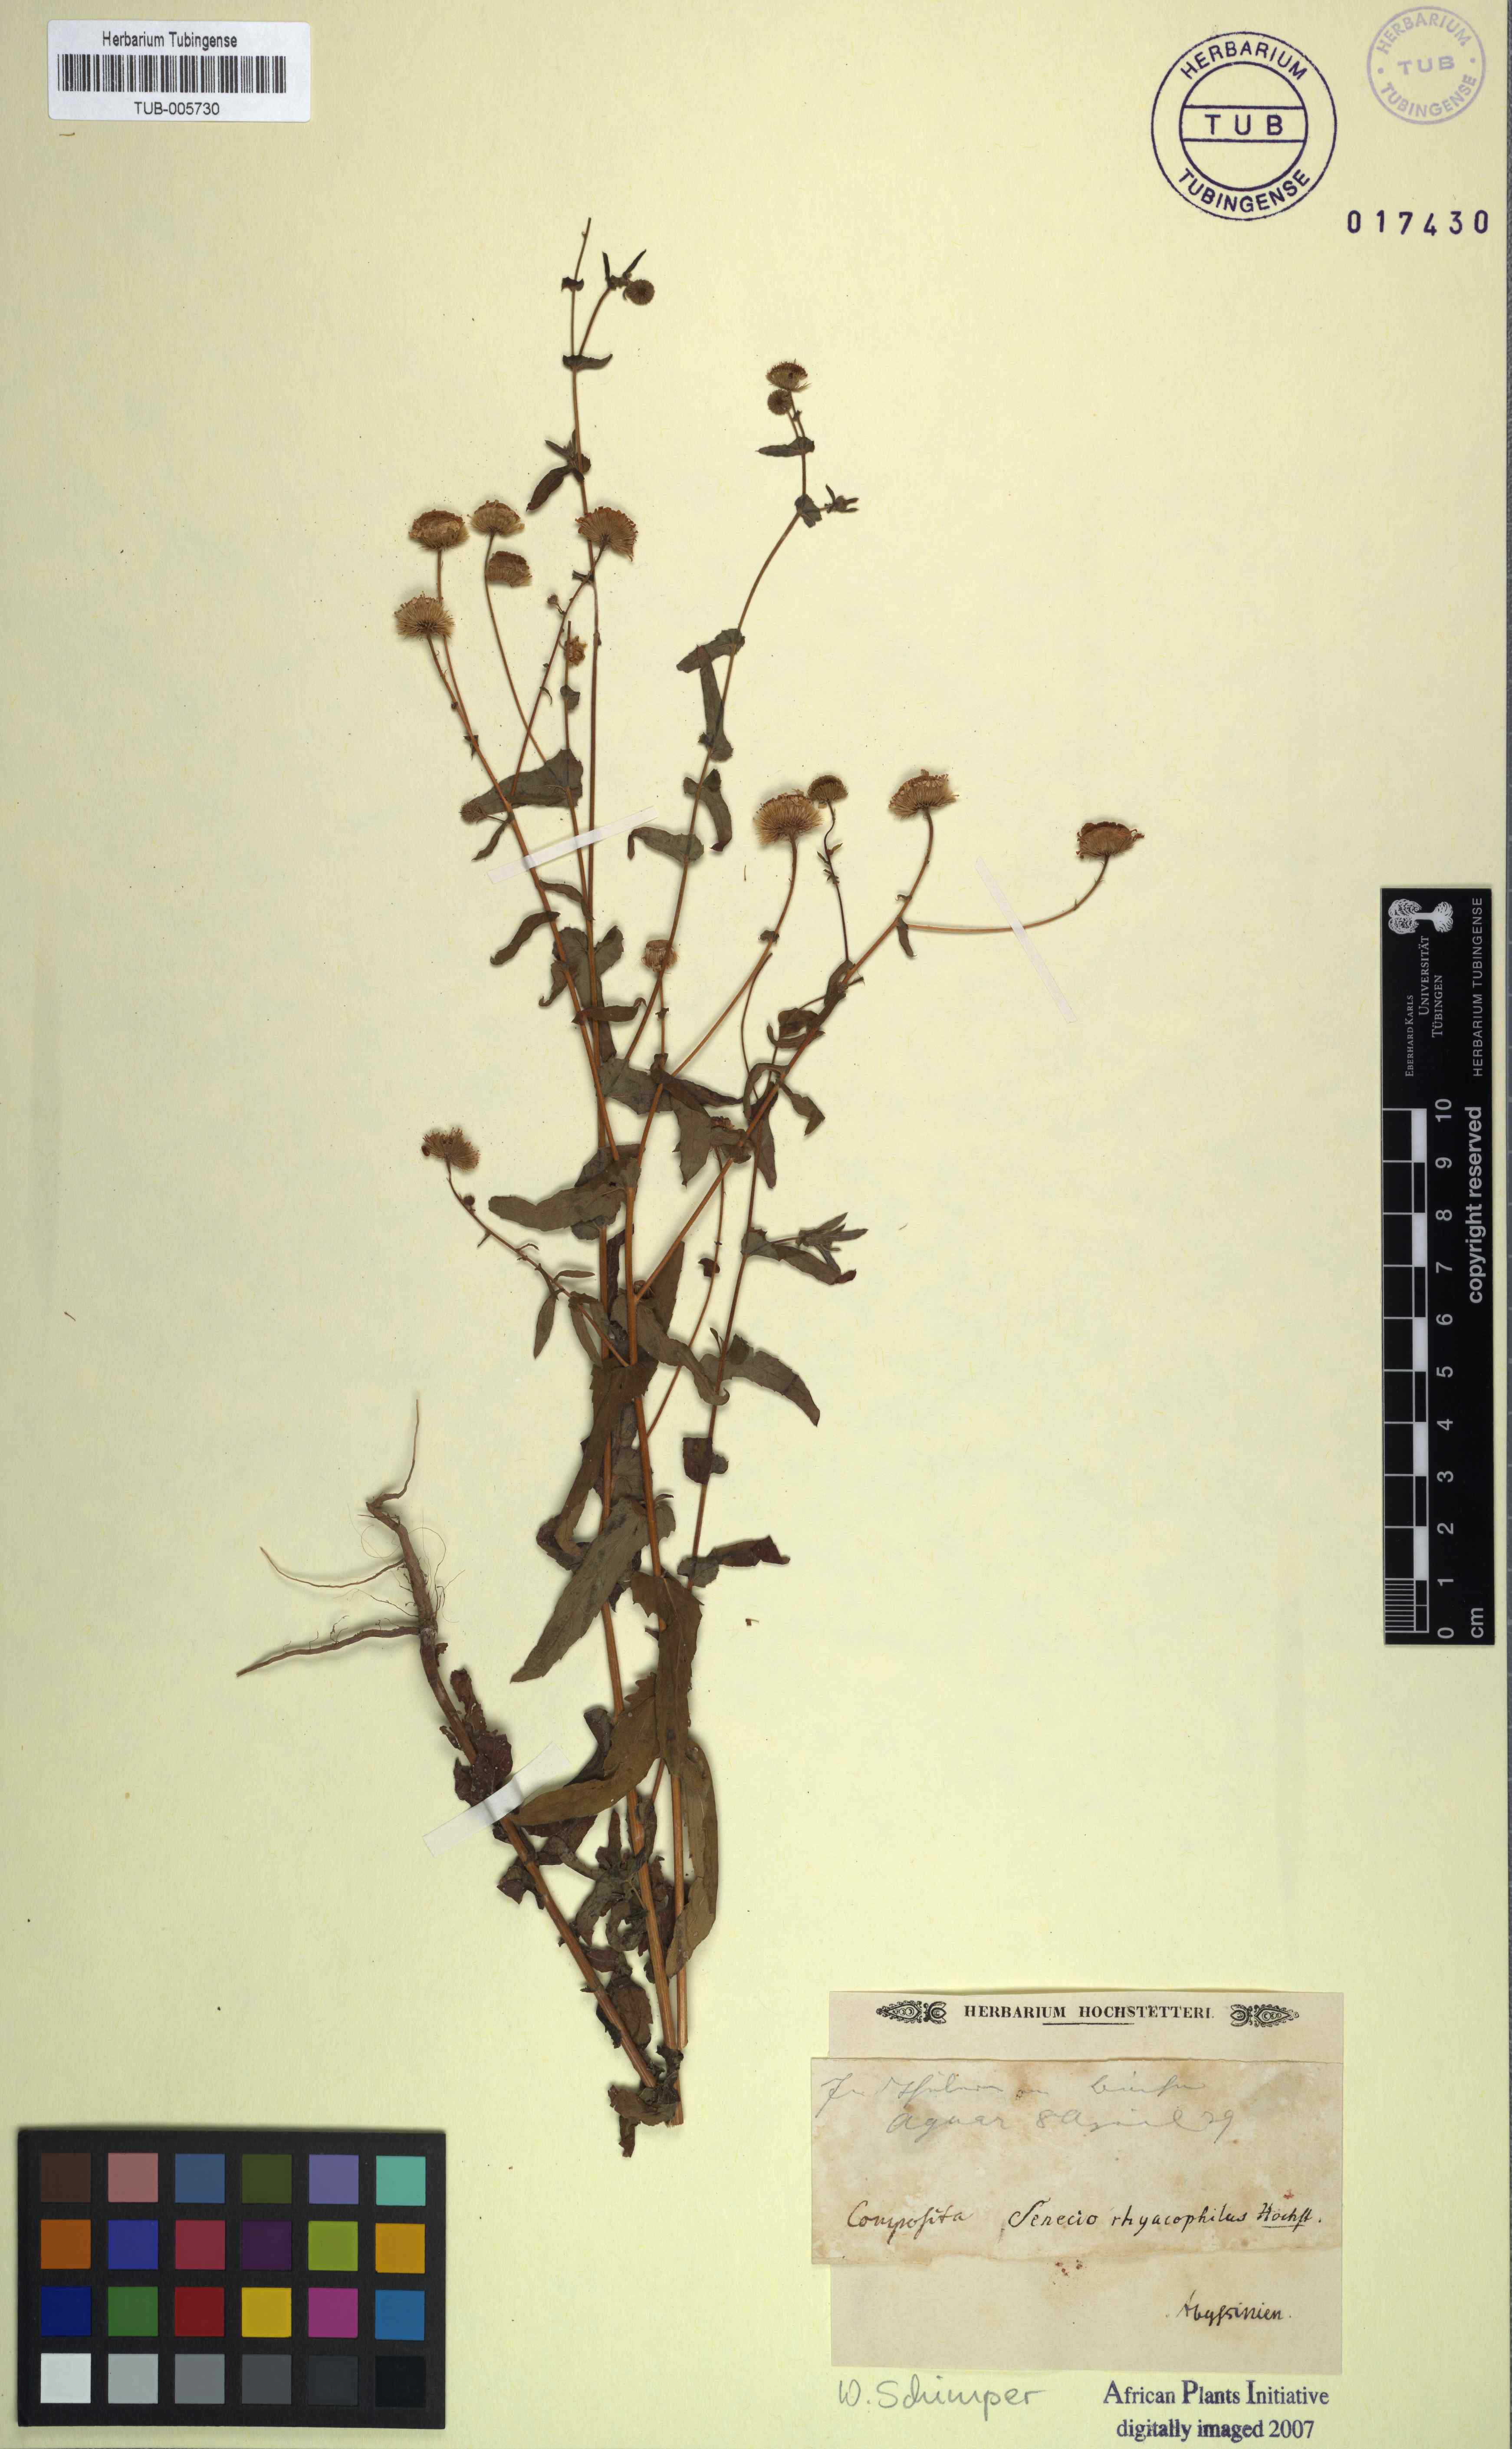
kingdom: Plantae
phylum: Tracheophyta
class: Magnoliopsida
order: Asterales
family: Asteraceae
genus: Senecio
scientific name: Senecio rhyacophilus
